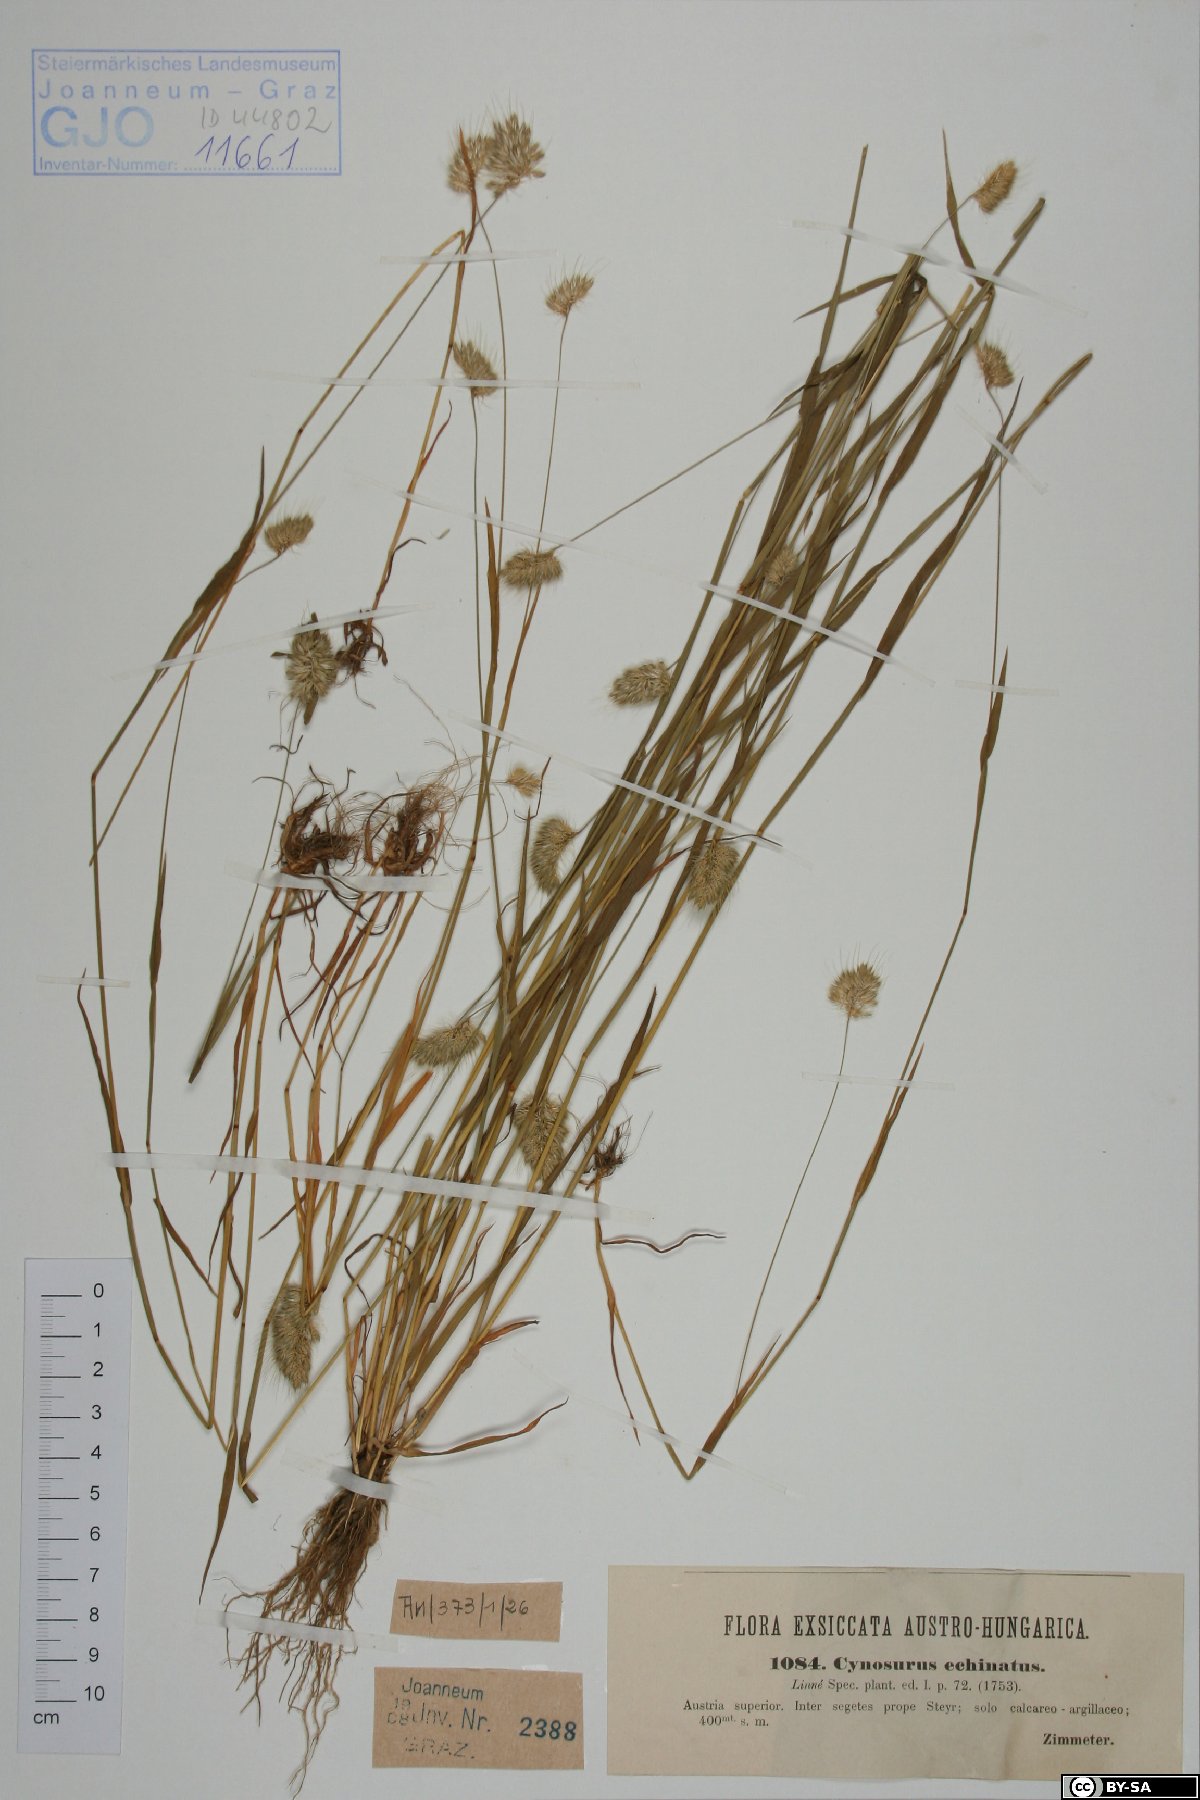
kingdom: Fungi
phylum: Basidiomycota
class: Agaricomycetes
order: Hymenochaetales
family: Rickenellaceae
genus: Peniophorella
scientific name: Peniophorella praetermissa
